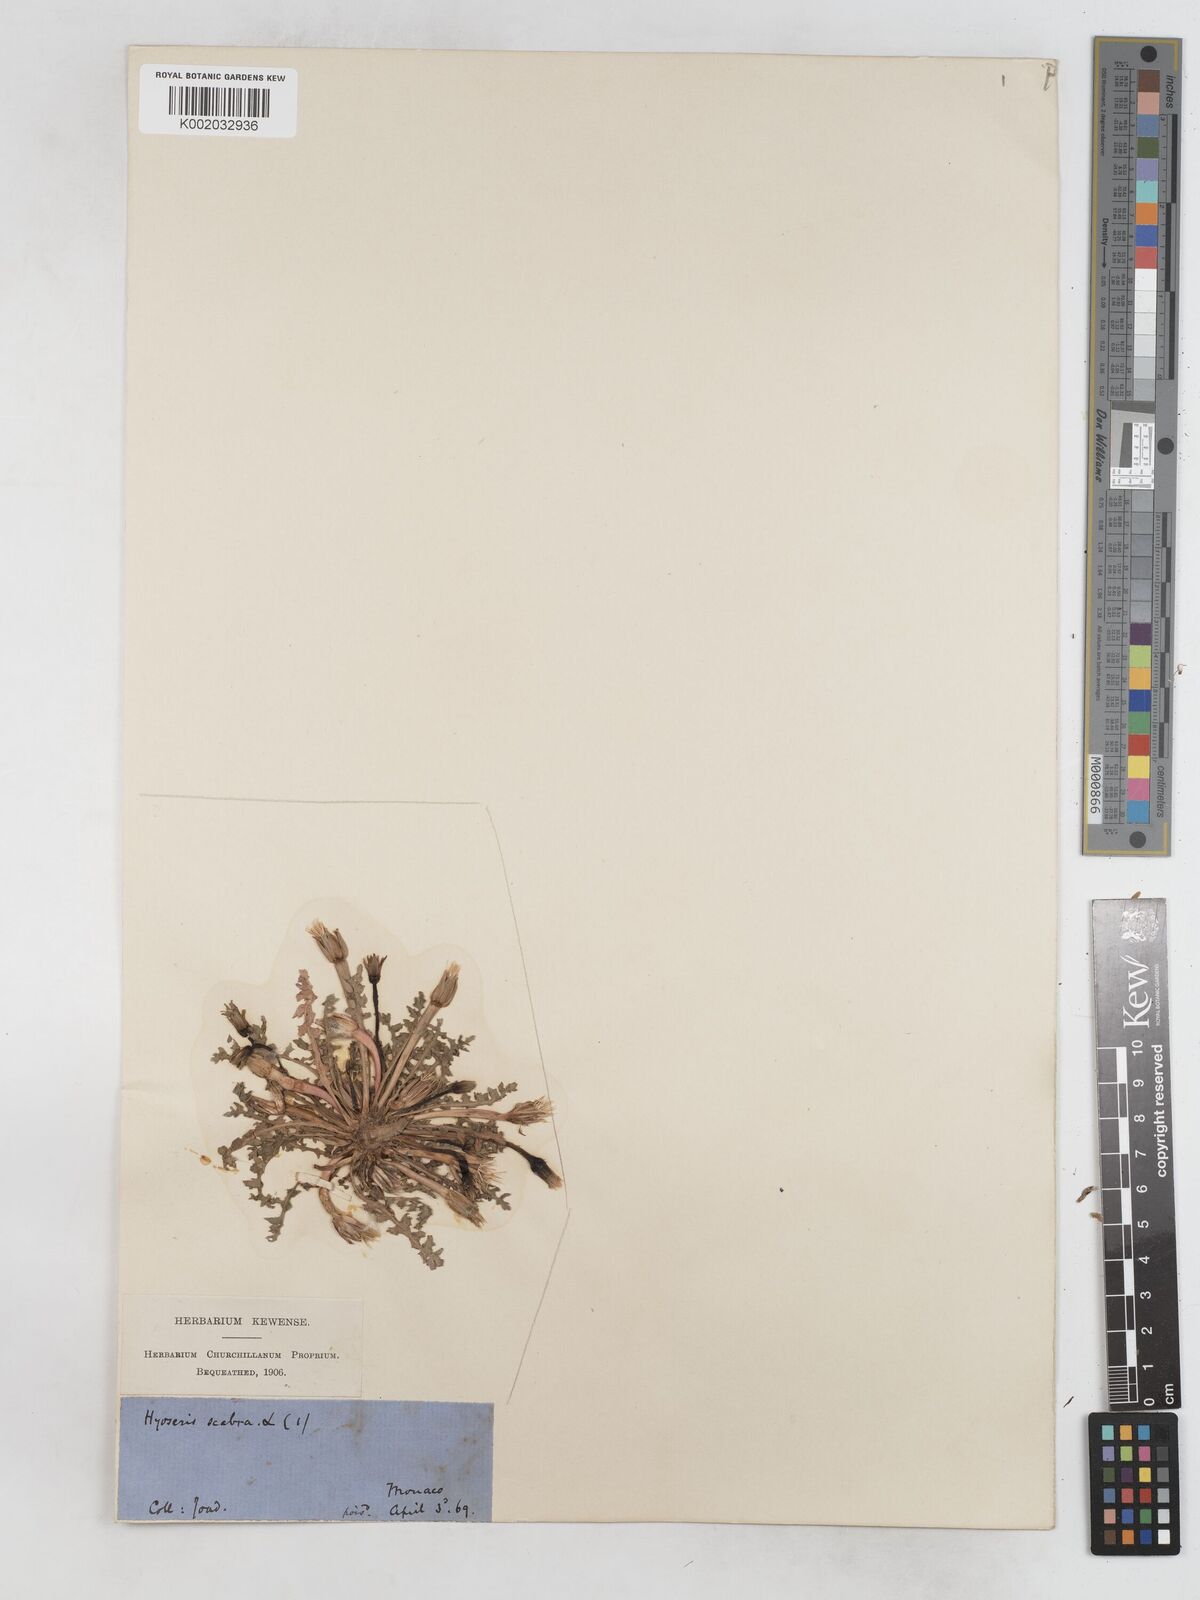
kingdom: Plantae
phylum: Tracheophyta
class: Magnoliopsida
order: Asterales
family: Asteraceae
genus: Hyoseris
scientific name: Hyoseris scabra
